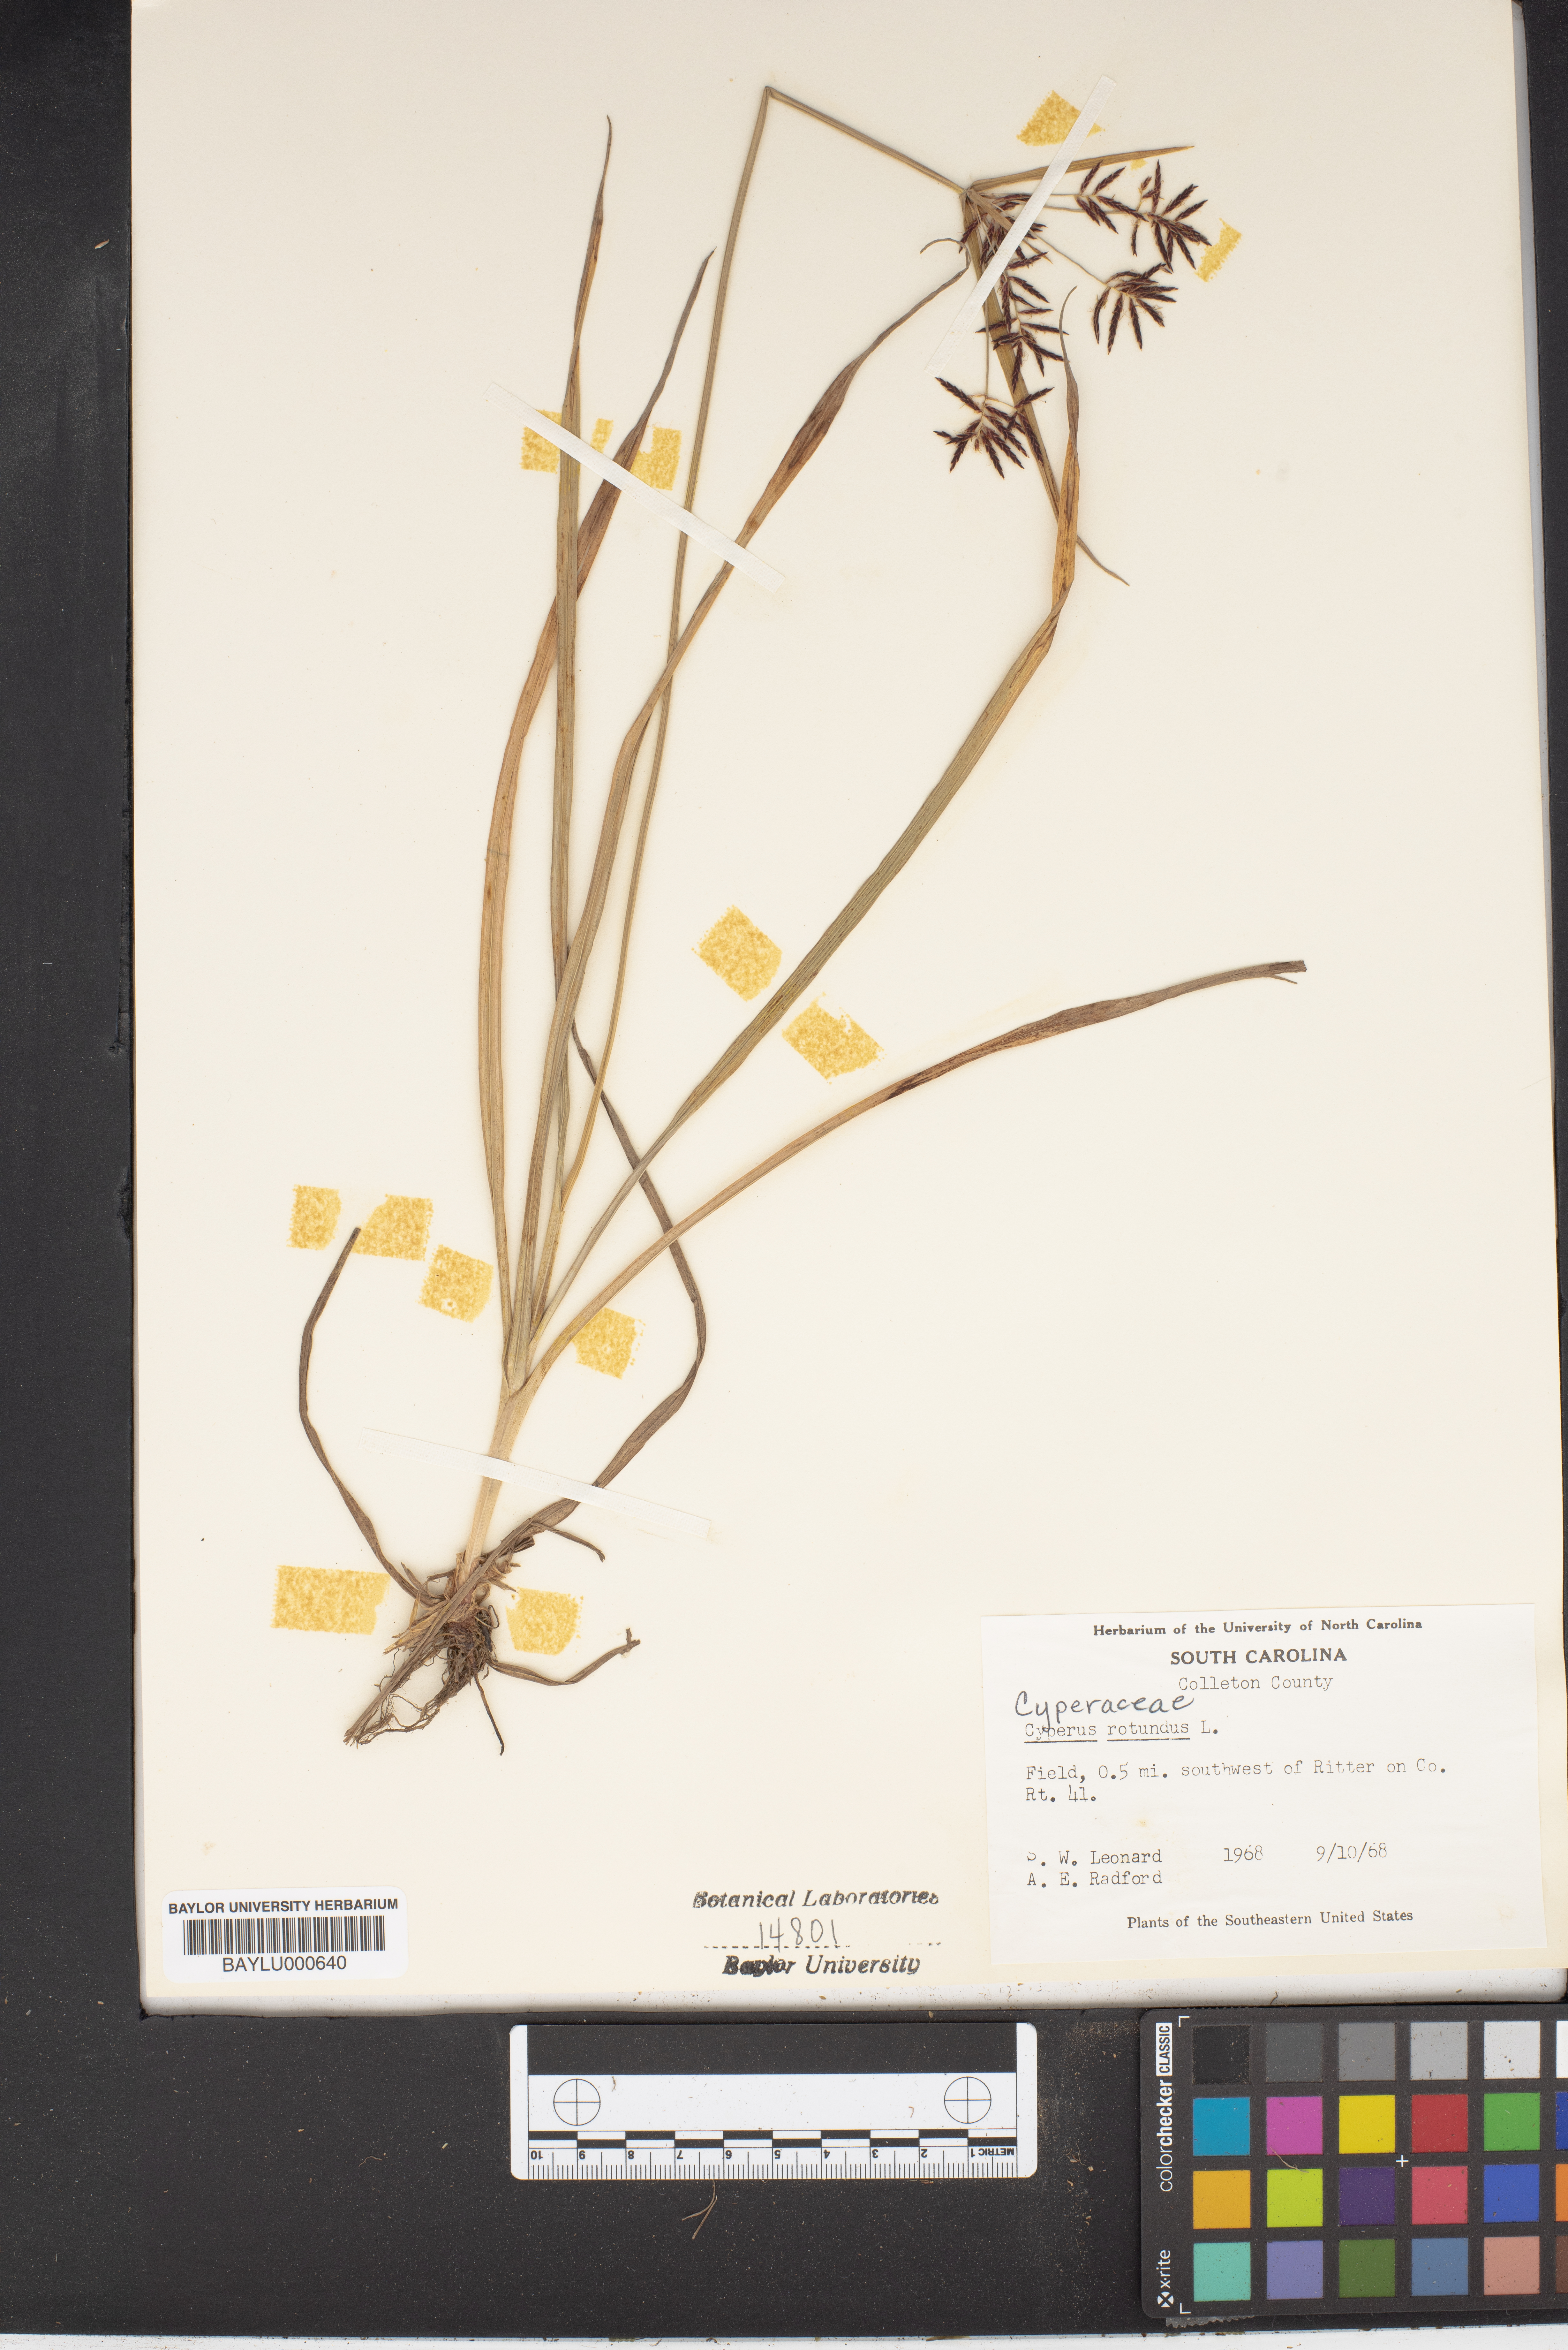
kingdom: Plantae
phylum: Tracheophyta
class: Liliopsida
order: Poales
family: Cyperaceae
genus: Cyperus
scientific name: Cyperus rotundus
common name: Nutgrass
